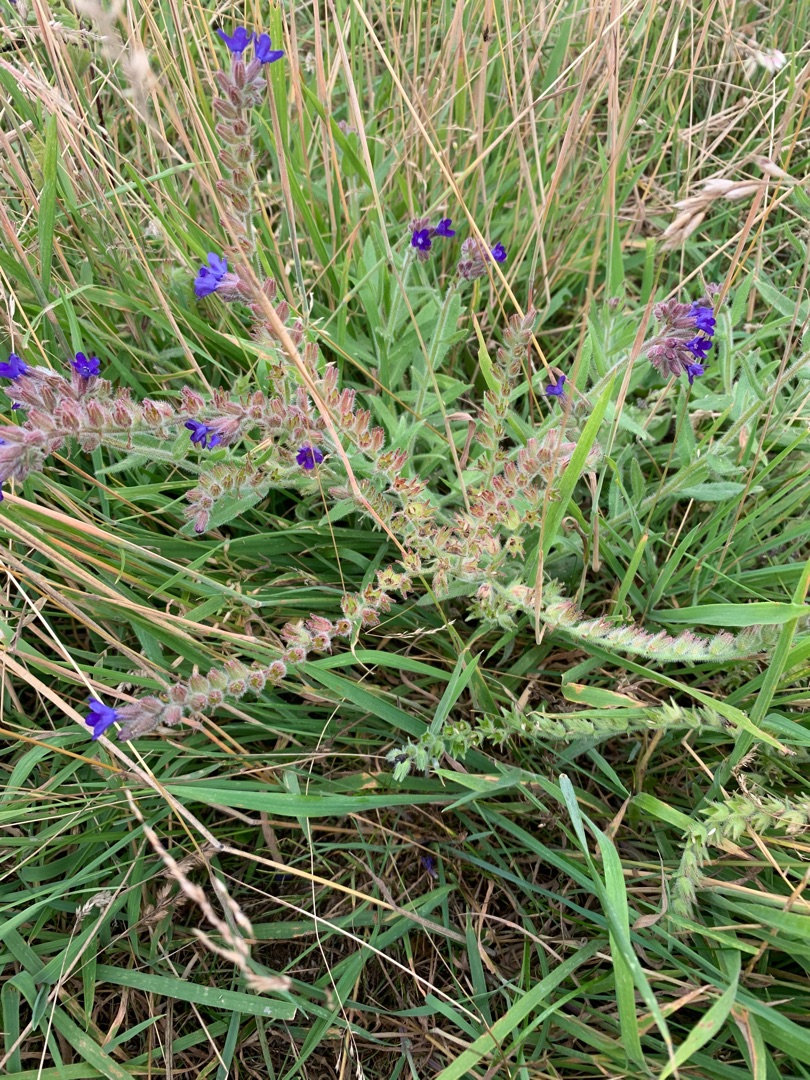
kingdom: Plantae
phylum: Tracheophyta
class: Magnoliopsida
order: Boraginales
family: Boraginaceae
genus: Anchusa
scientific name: Anchusa officinalis
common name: Læge-oksetunge
